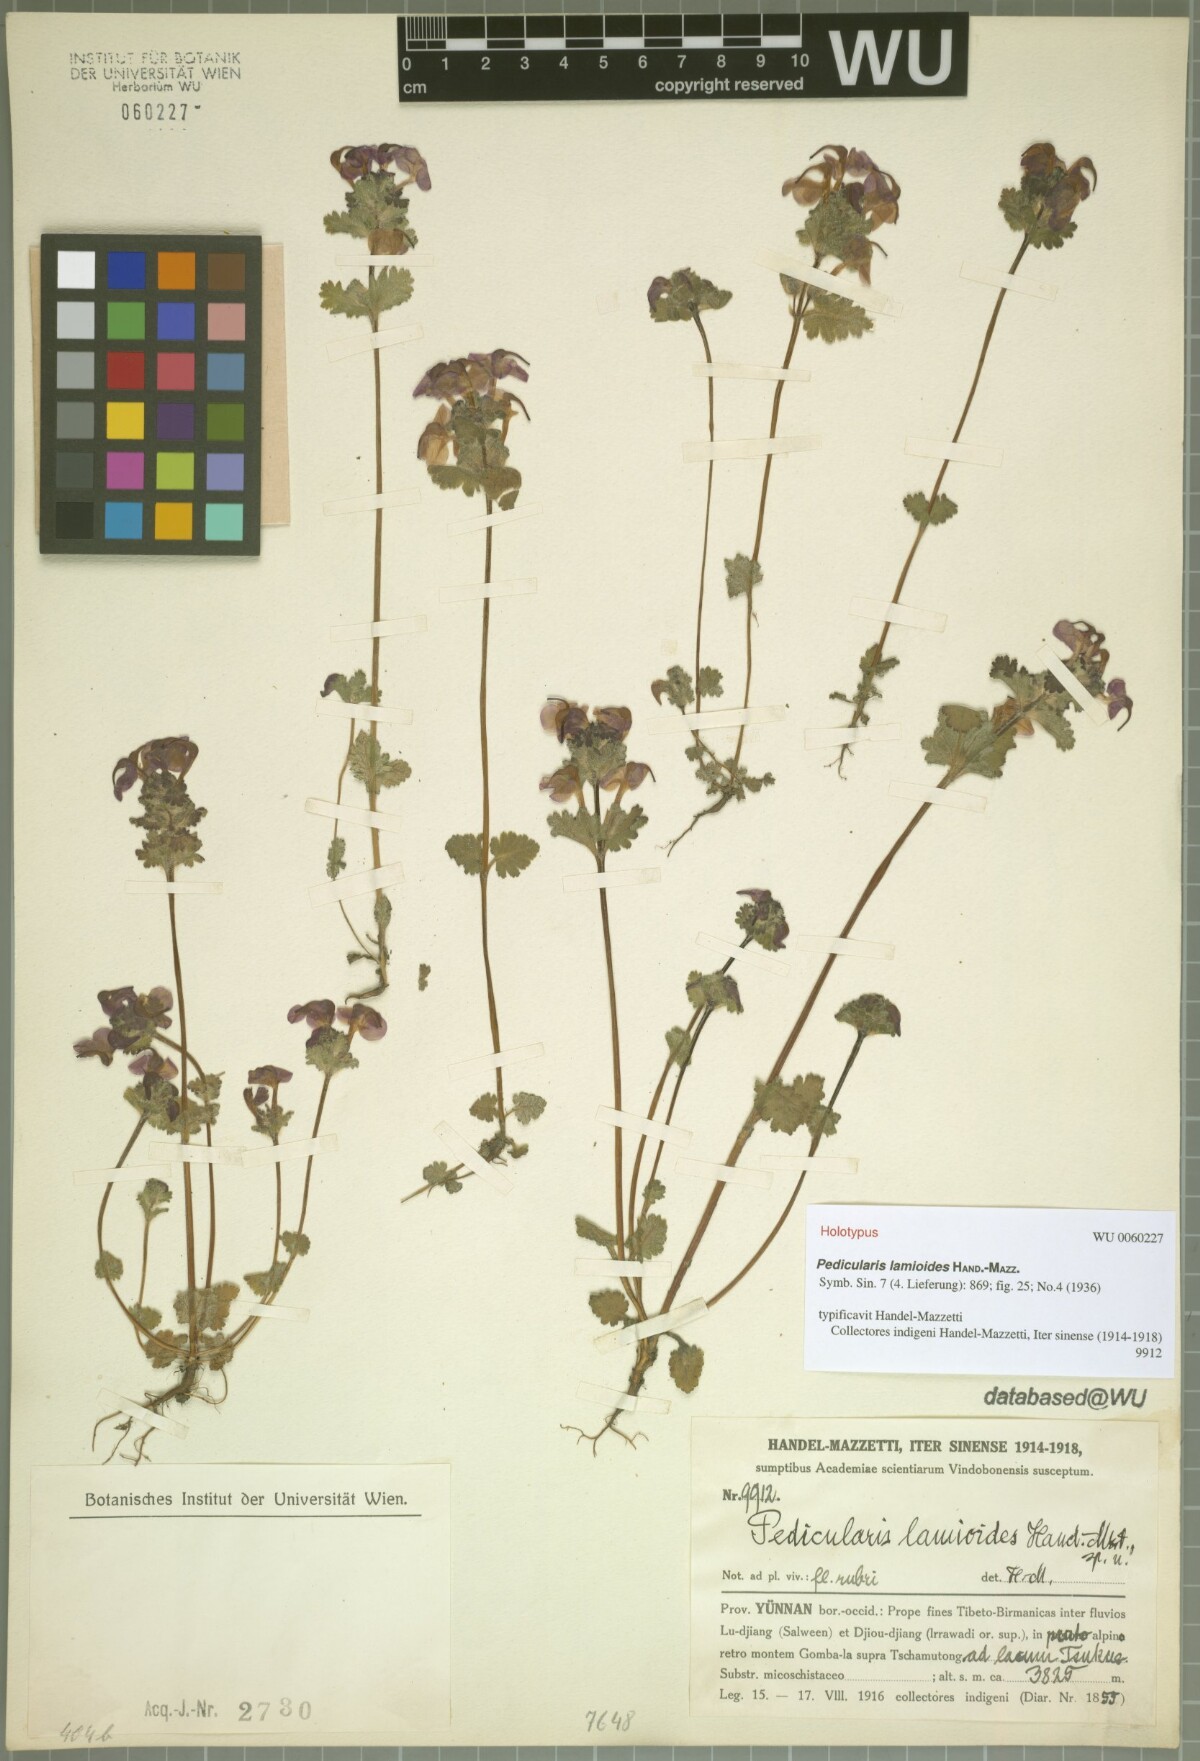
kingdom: Plantae
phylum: Tracheophyta
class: Magnoliopsida
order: Lamiales
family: Orobanchaceae
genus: Pedicularis
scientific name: Pedicularis lamioides
